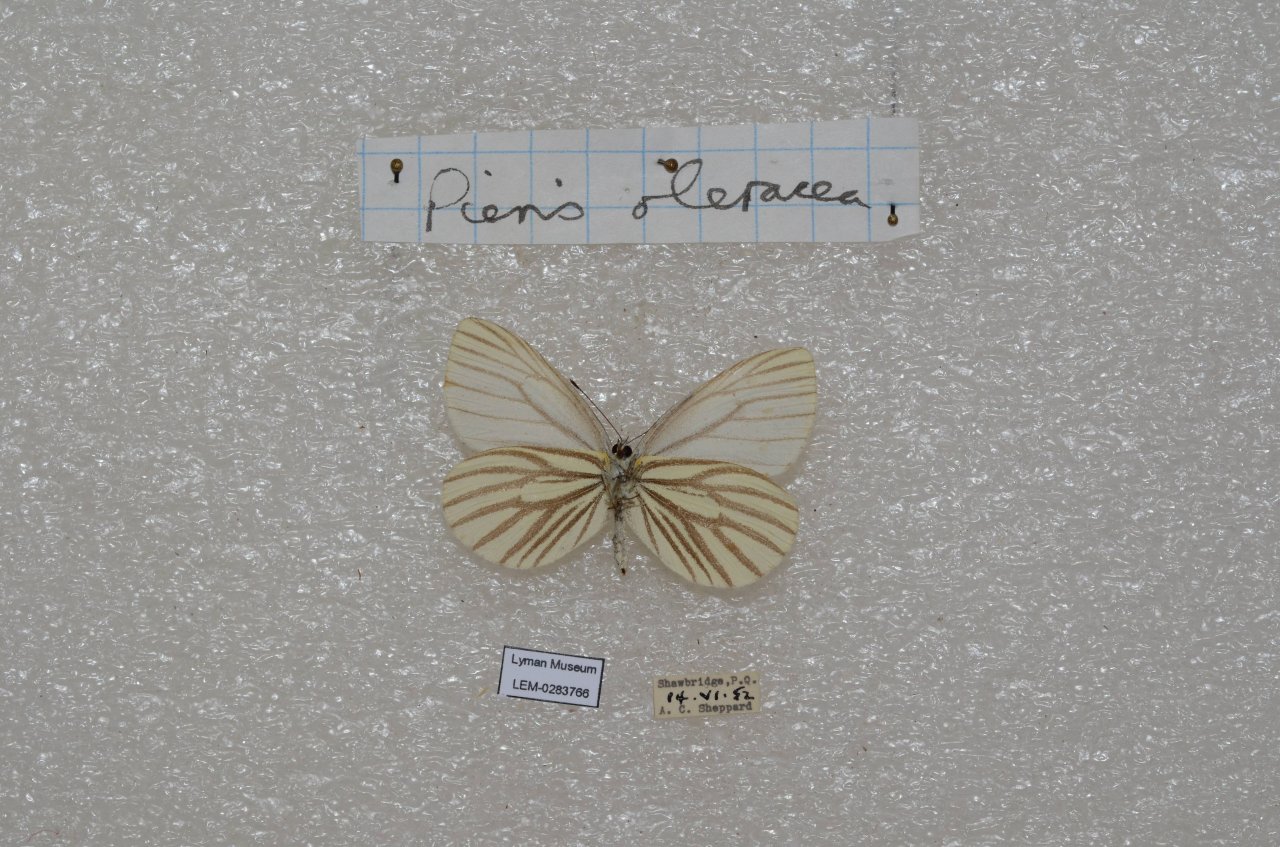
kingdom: Animalia
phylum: Arthropoda
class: Insecta
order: Lepidoptera
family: Pieridae
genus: Pieris
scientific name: Pieris oleracea
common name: Mustard White
